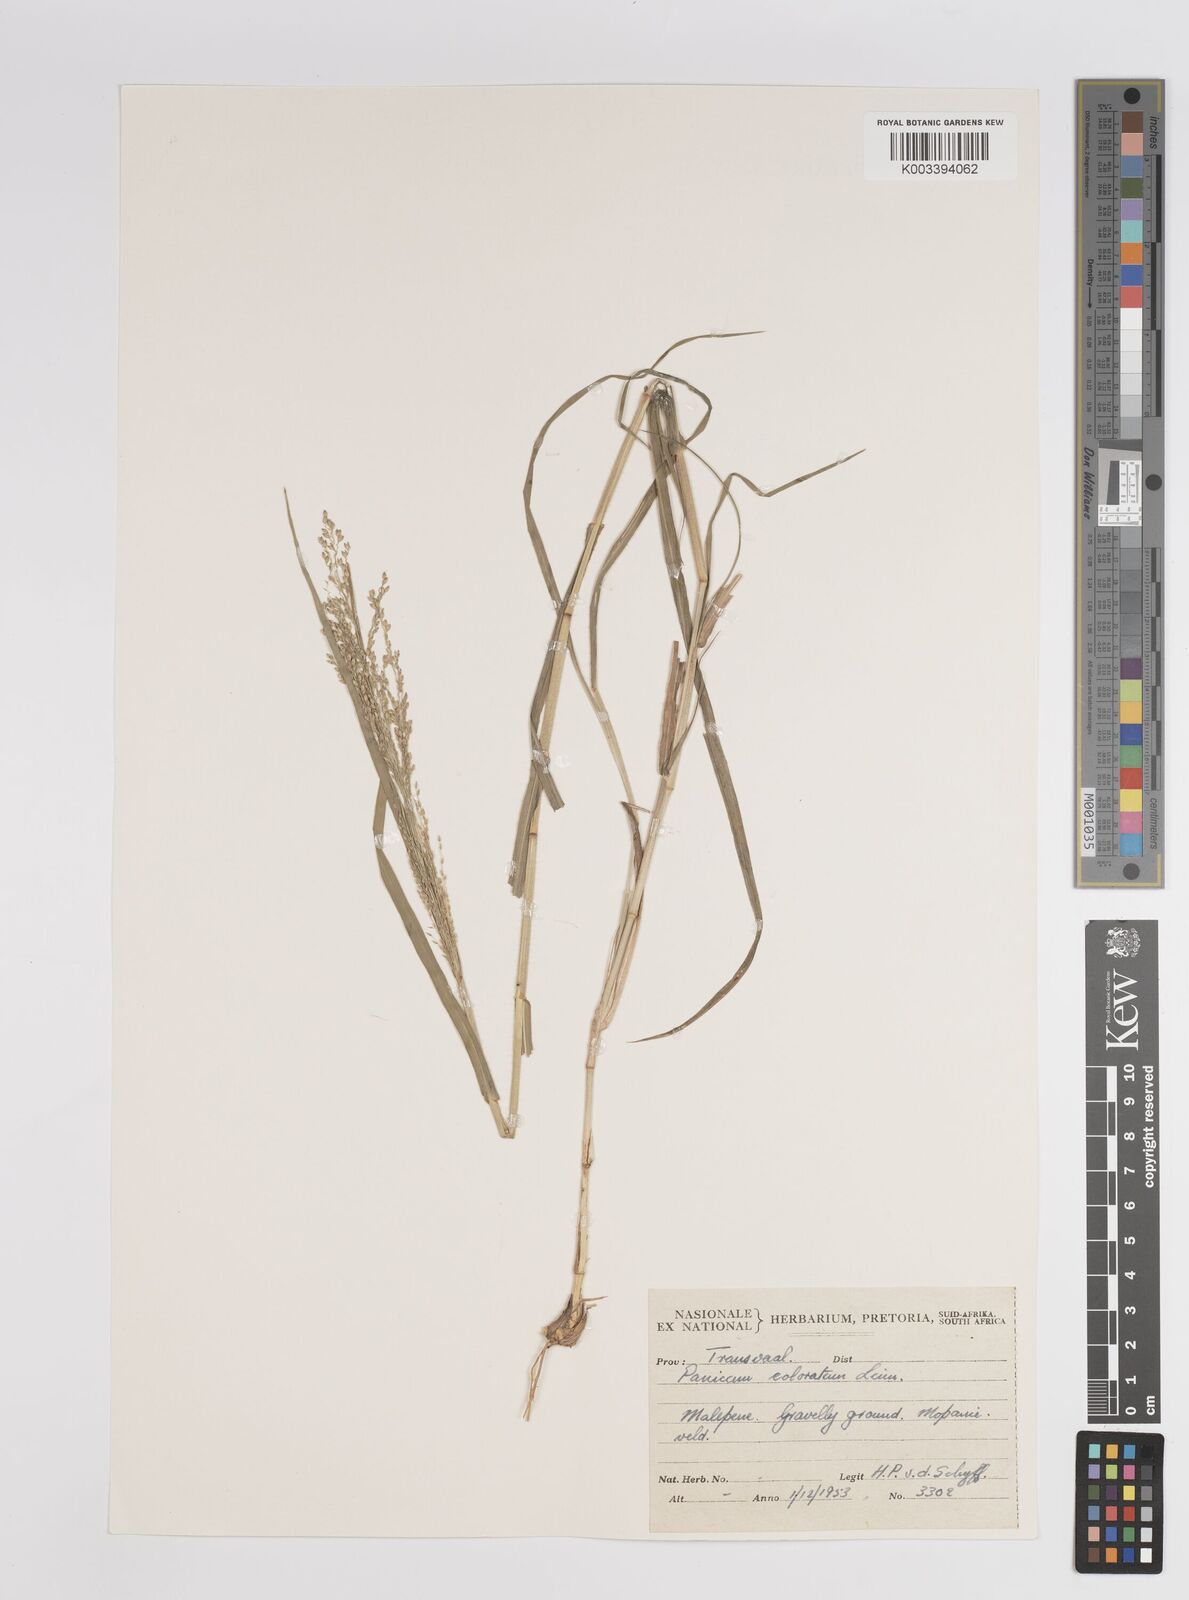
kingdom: Plantae
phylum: Tracheophyta
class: Liliopsida
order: Poales
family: Poaceae
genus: Panicum
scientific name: Panicum coloratum
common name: Kleingrass
